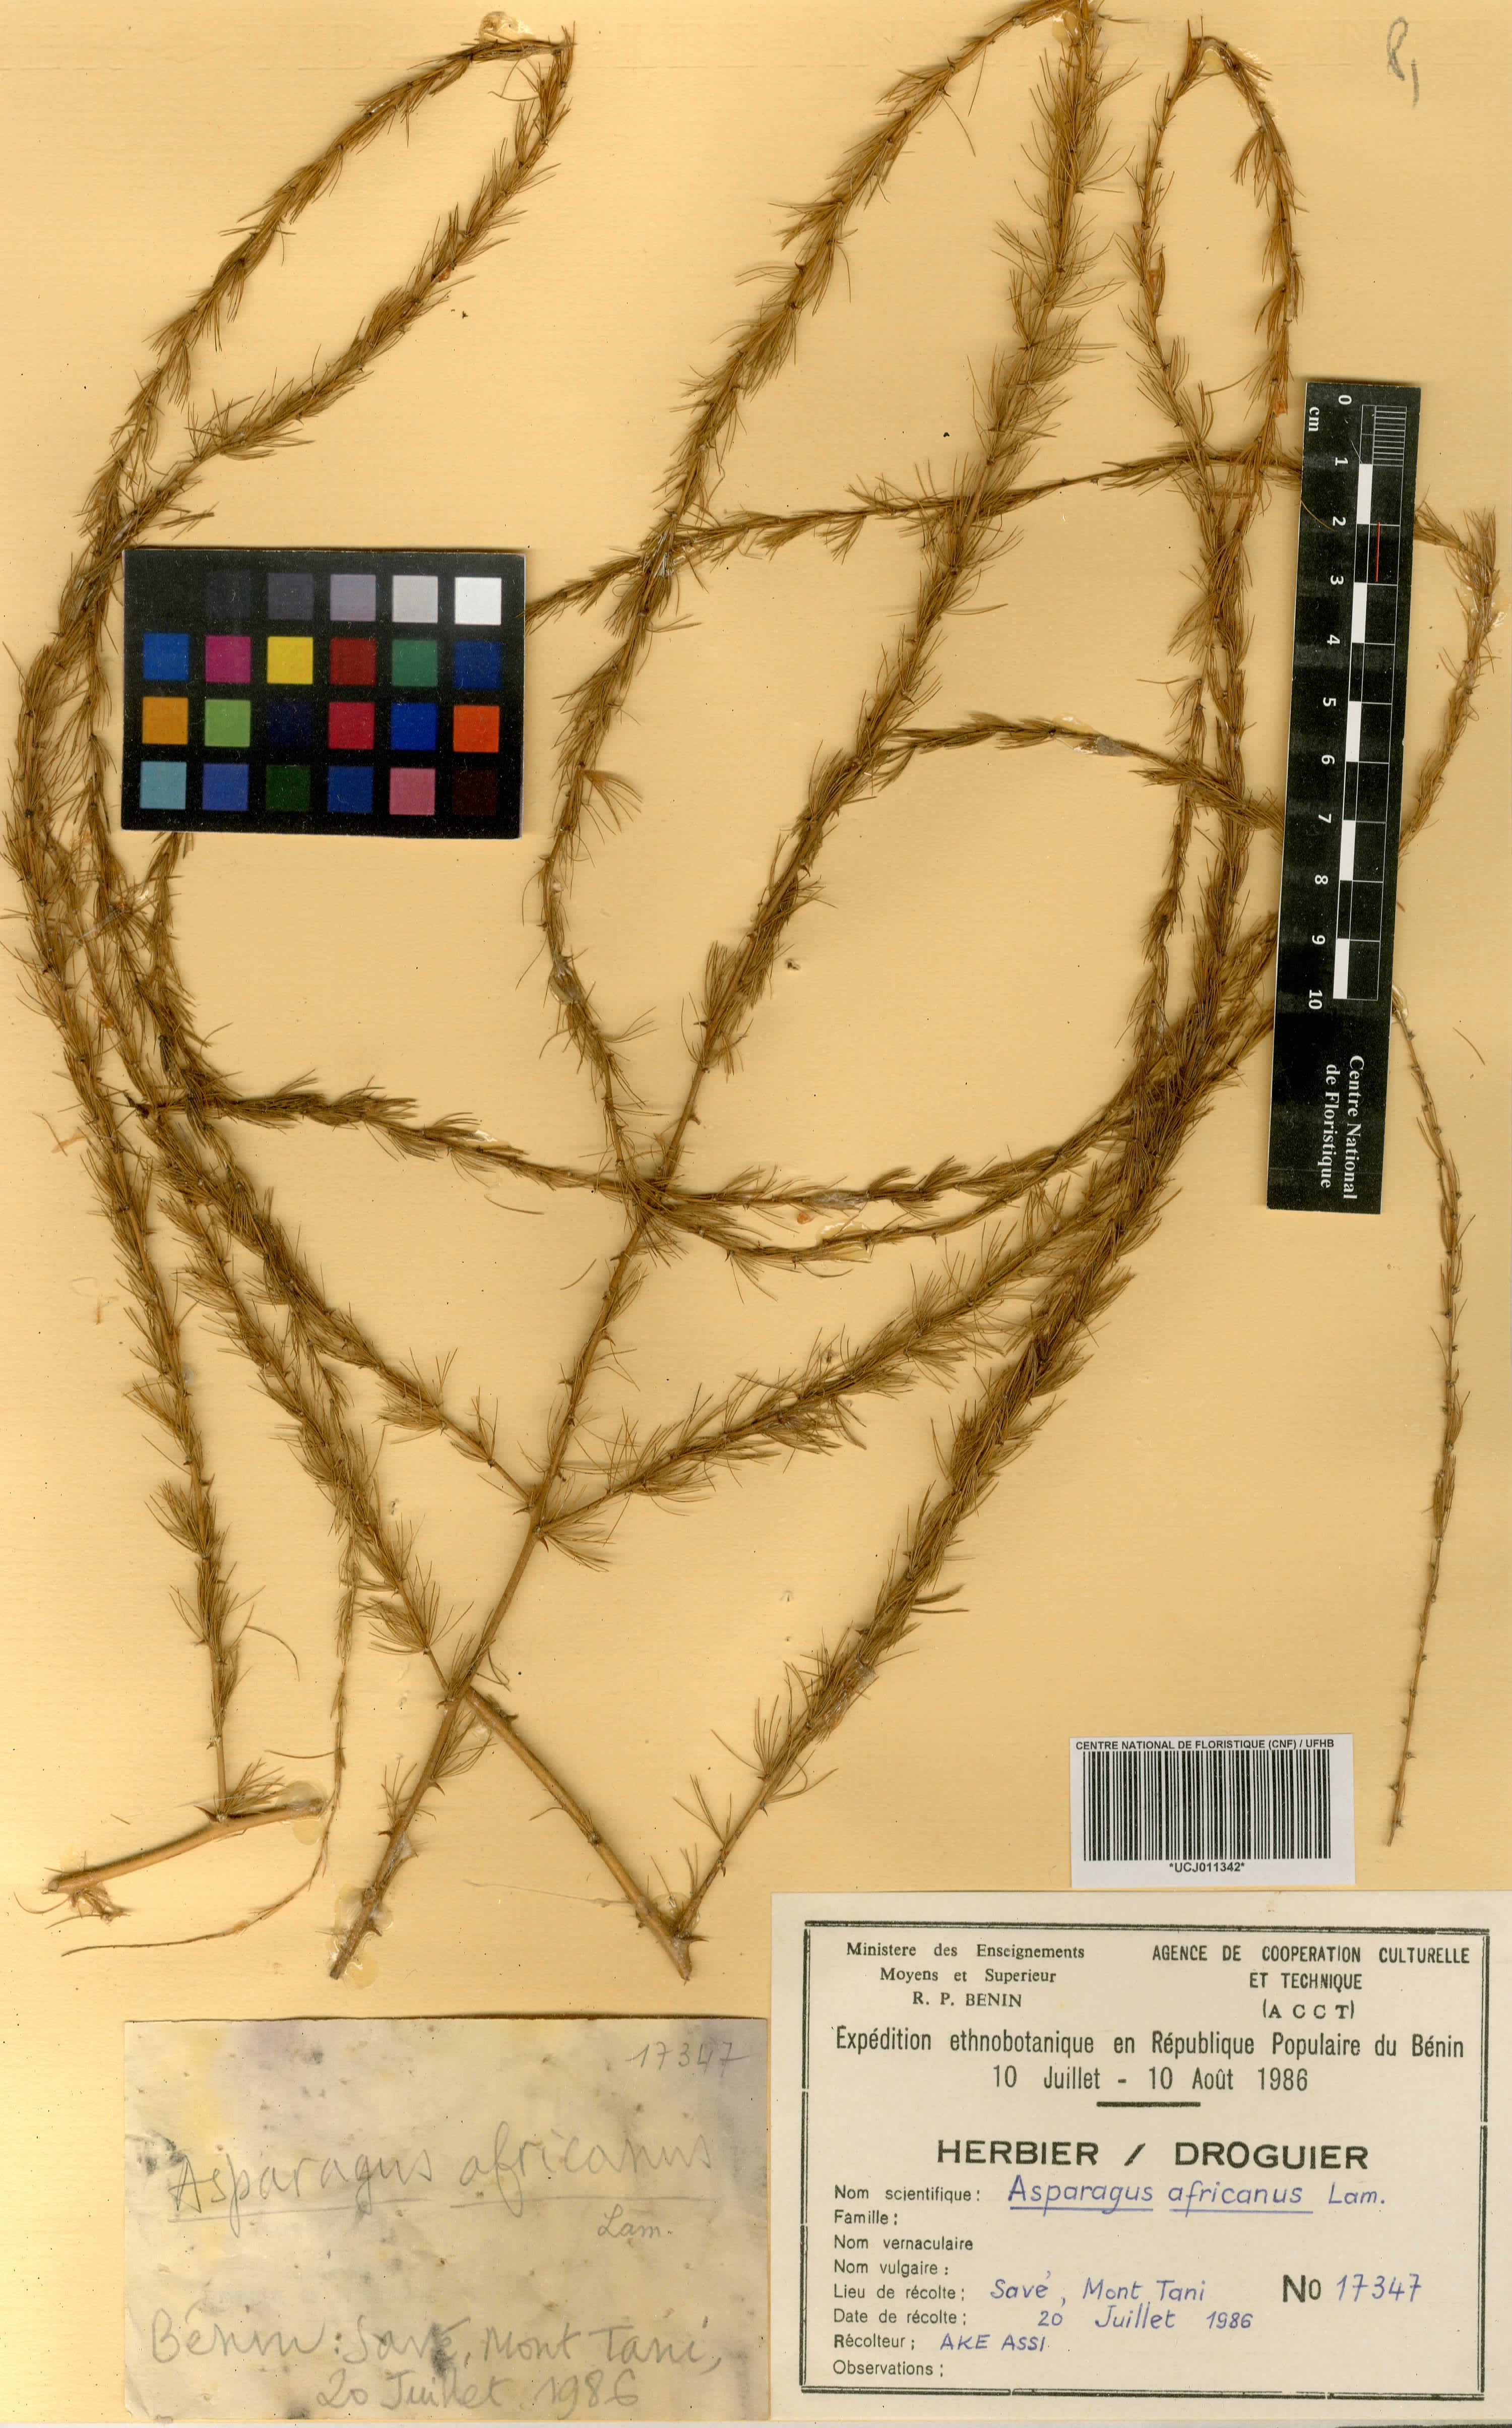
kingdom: Plantae
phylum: Tracheophyta
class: Liliopsida
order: Asparagales
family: Asparagaceae
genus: Asparagus
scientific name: Asparagus africanus
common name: Asparagus-fern
